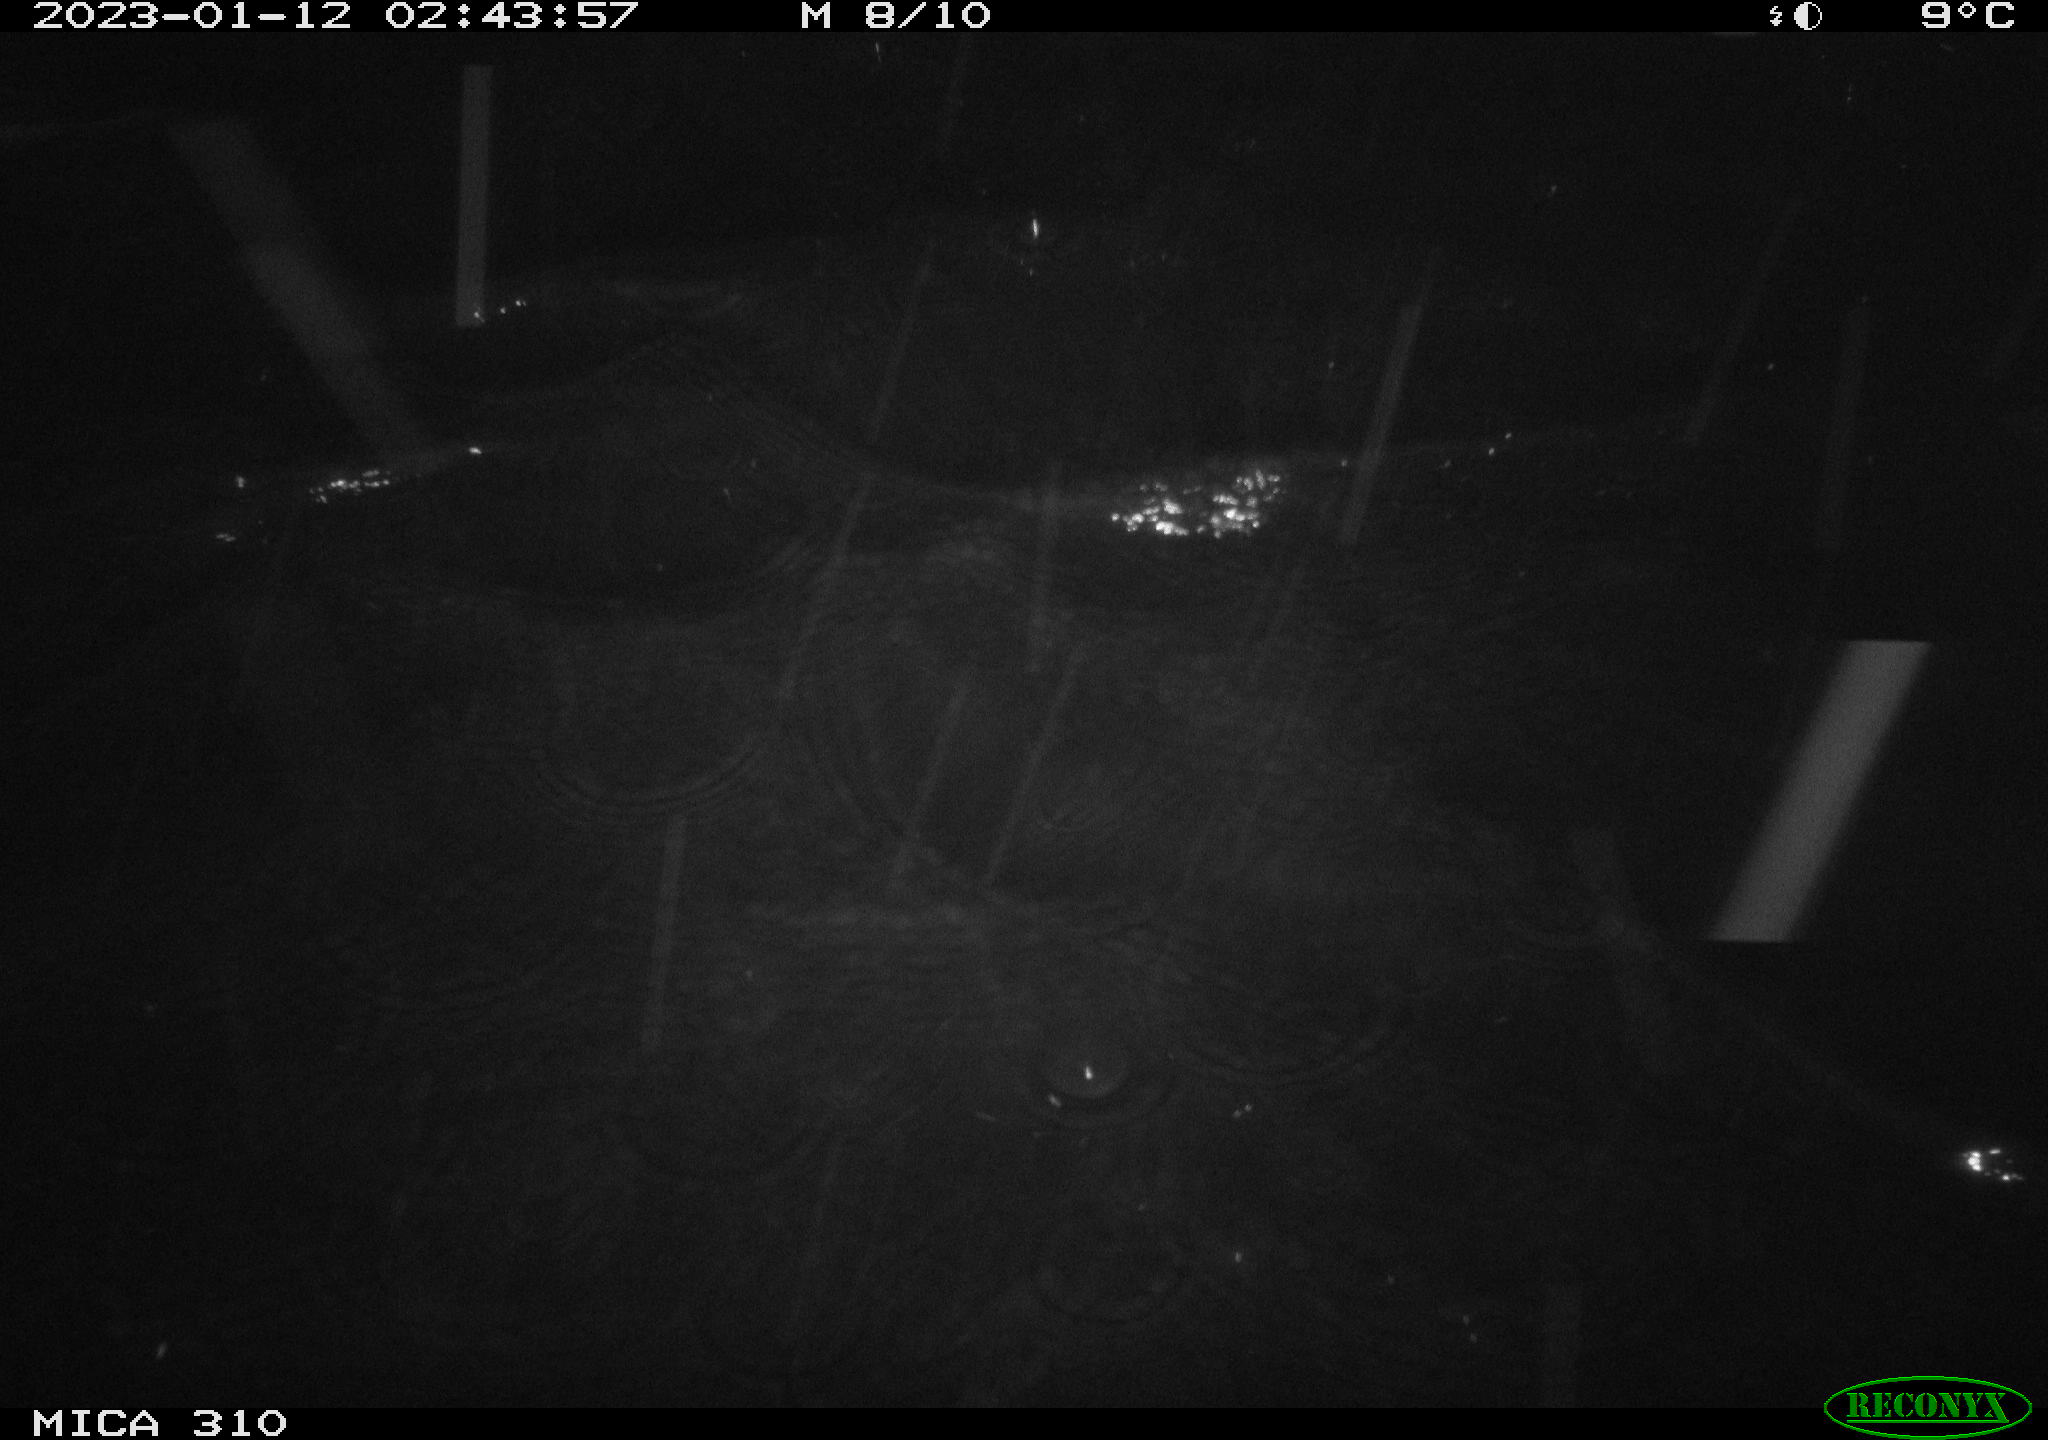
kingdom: Animalia
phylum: Chordata
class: Mammalia
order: Rodentia
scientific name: Rodentia
